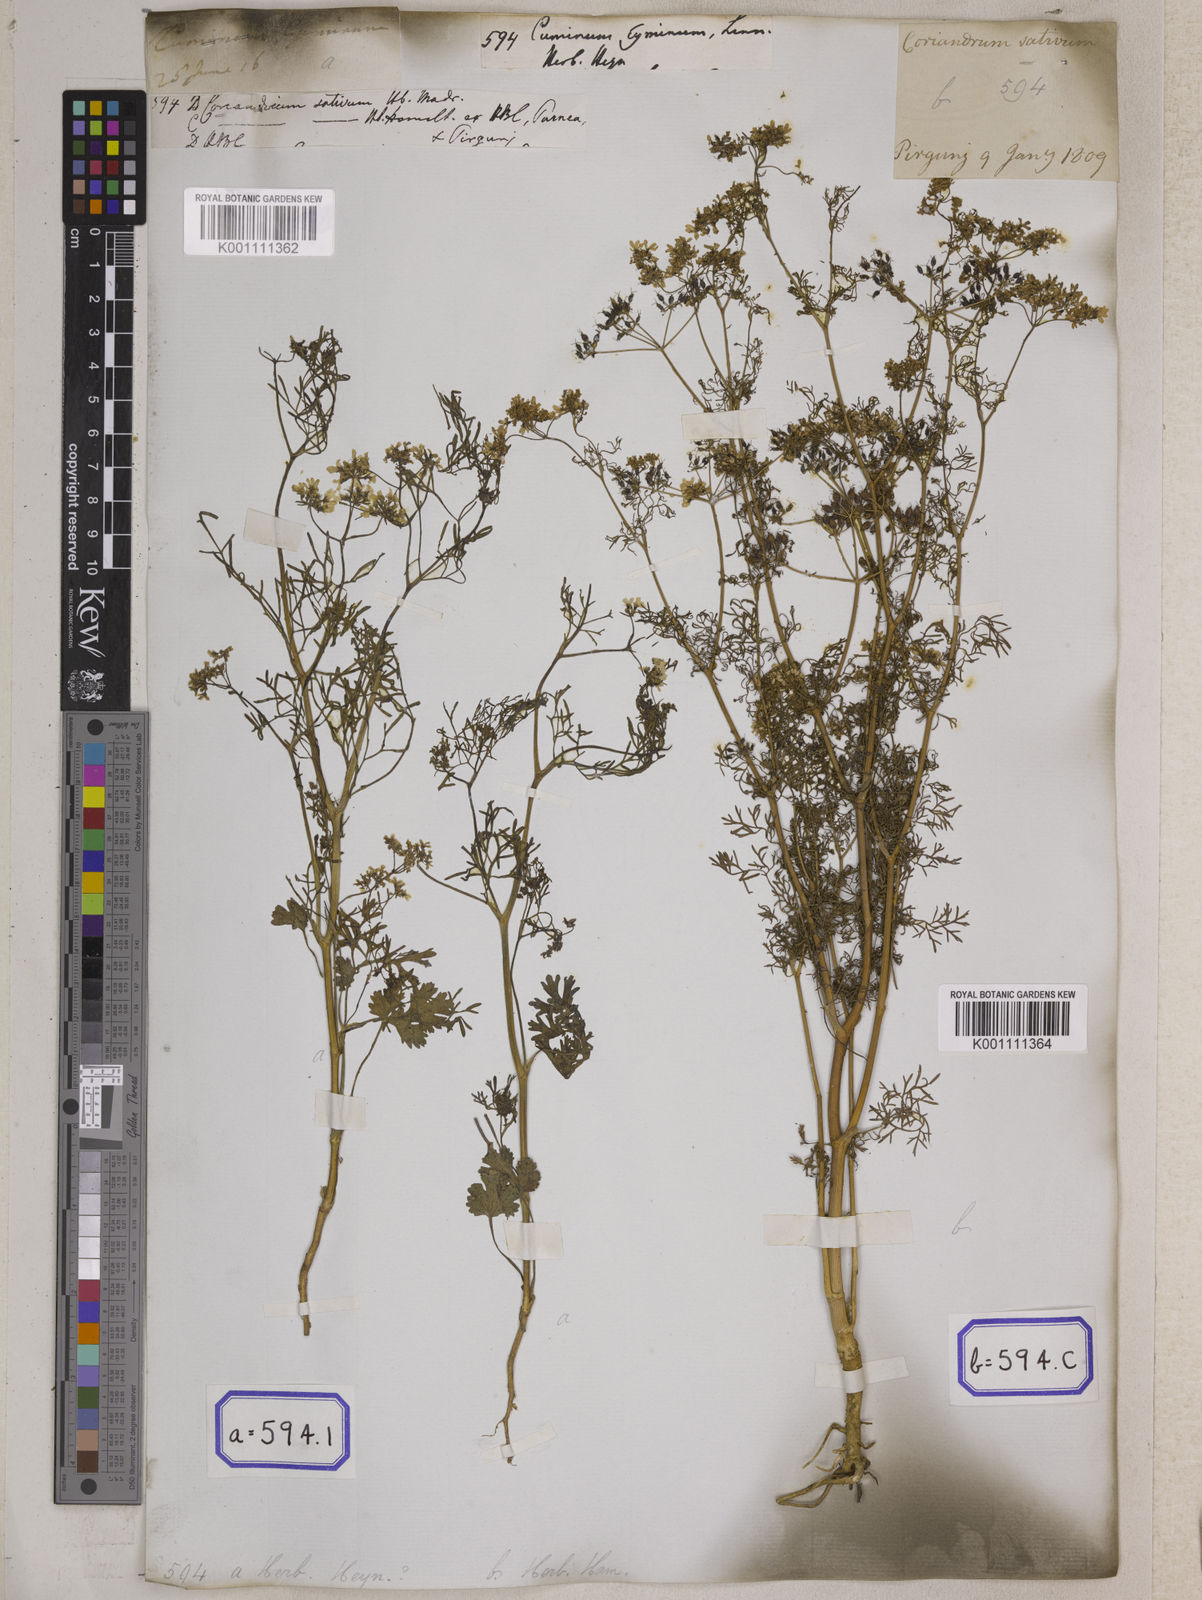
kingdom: Plantae
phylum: Tracheophyta
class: Magnoliopsida
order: Apiales
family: Apiaceae
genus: Cuminum
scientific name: Cuminum cyminum
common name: Cumin
